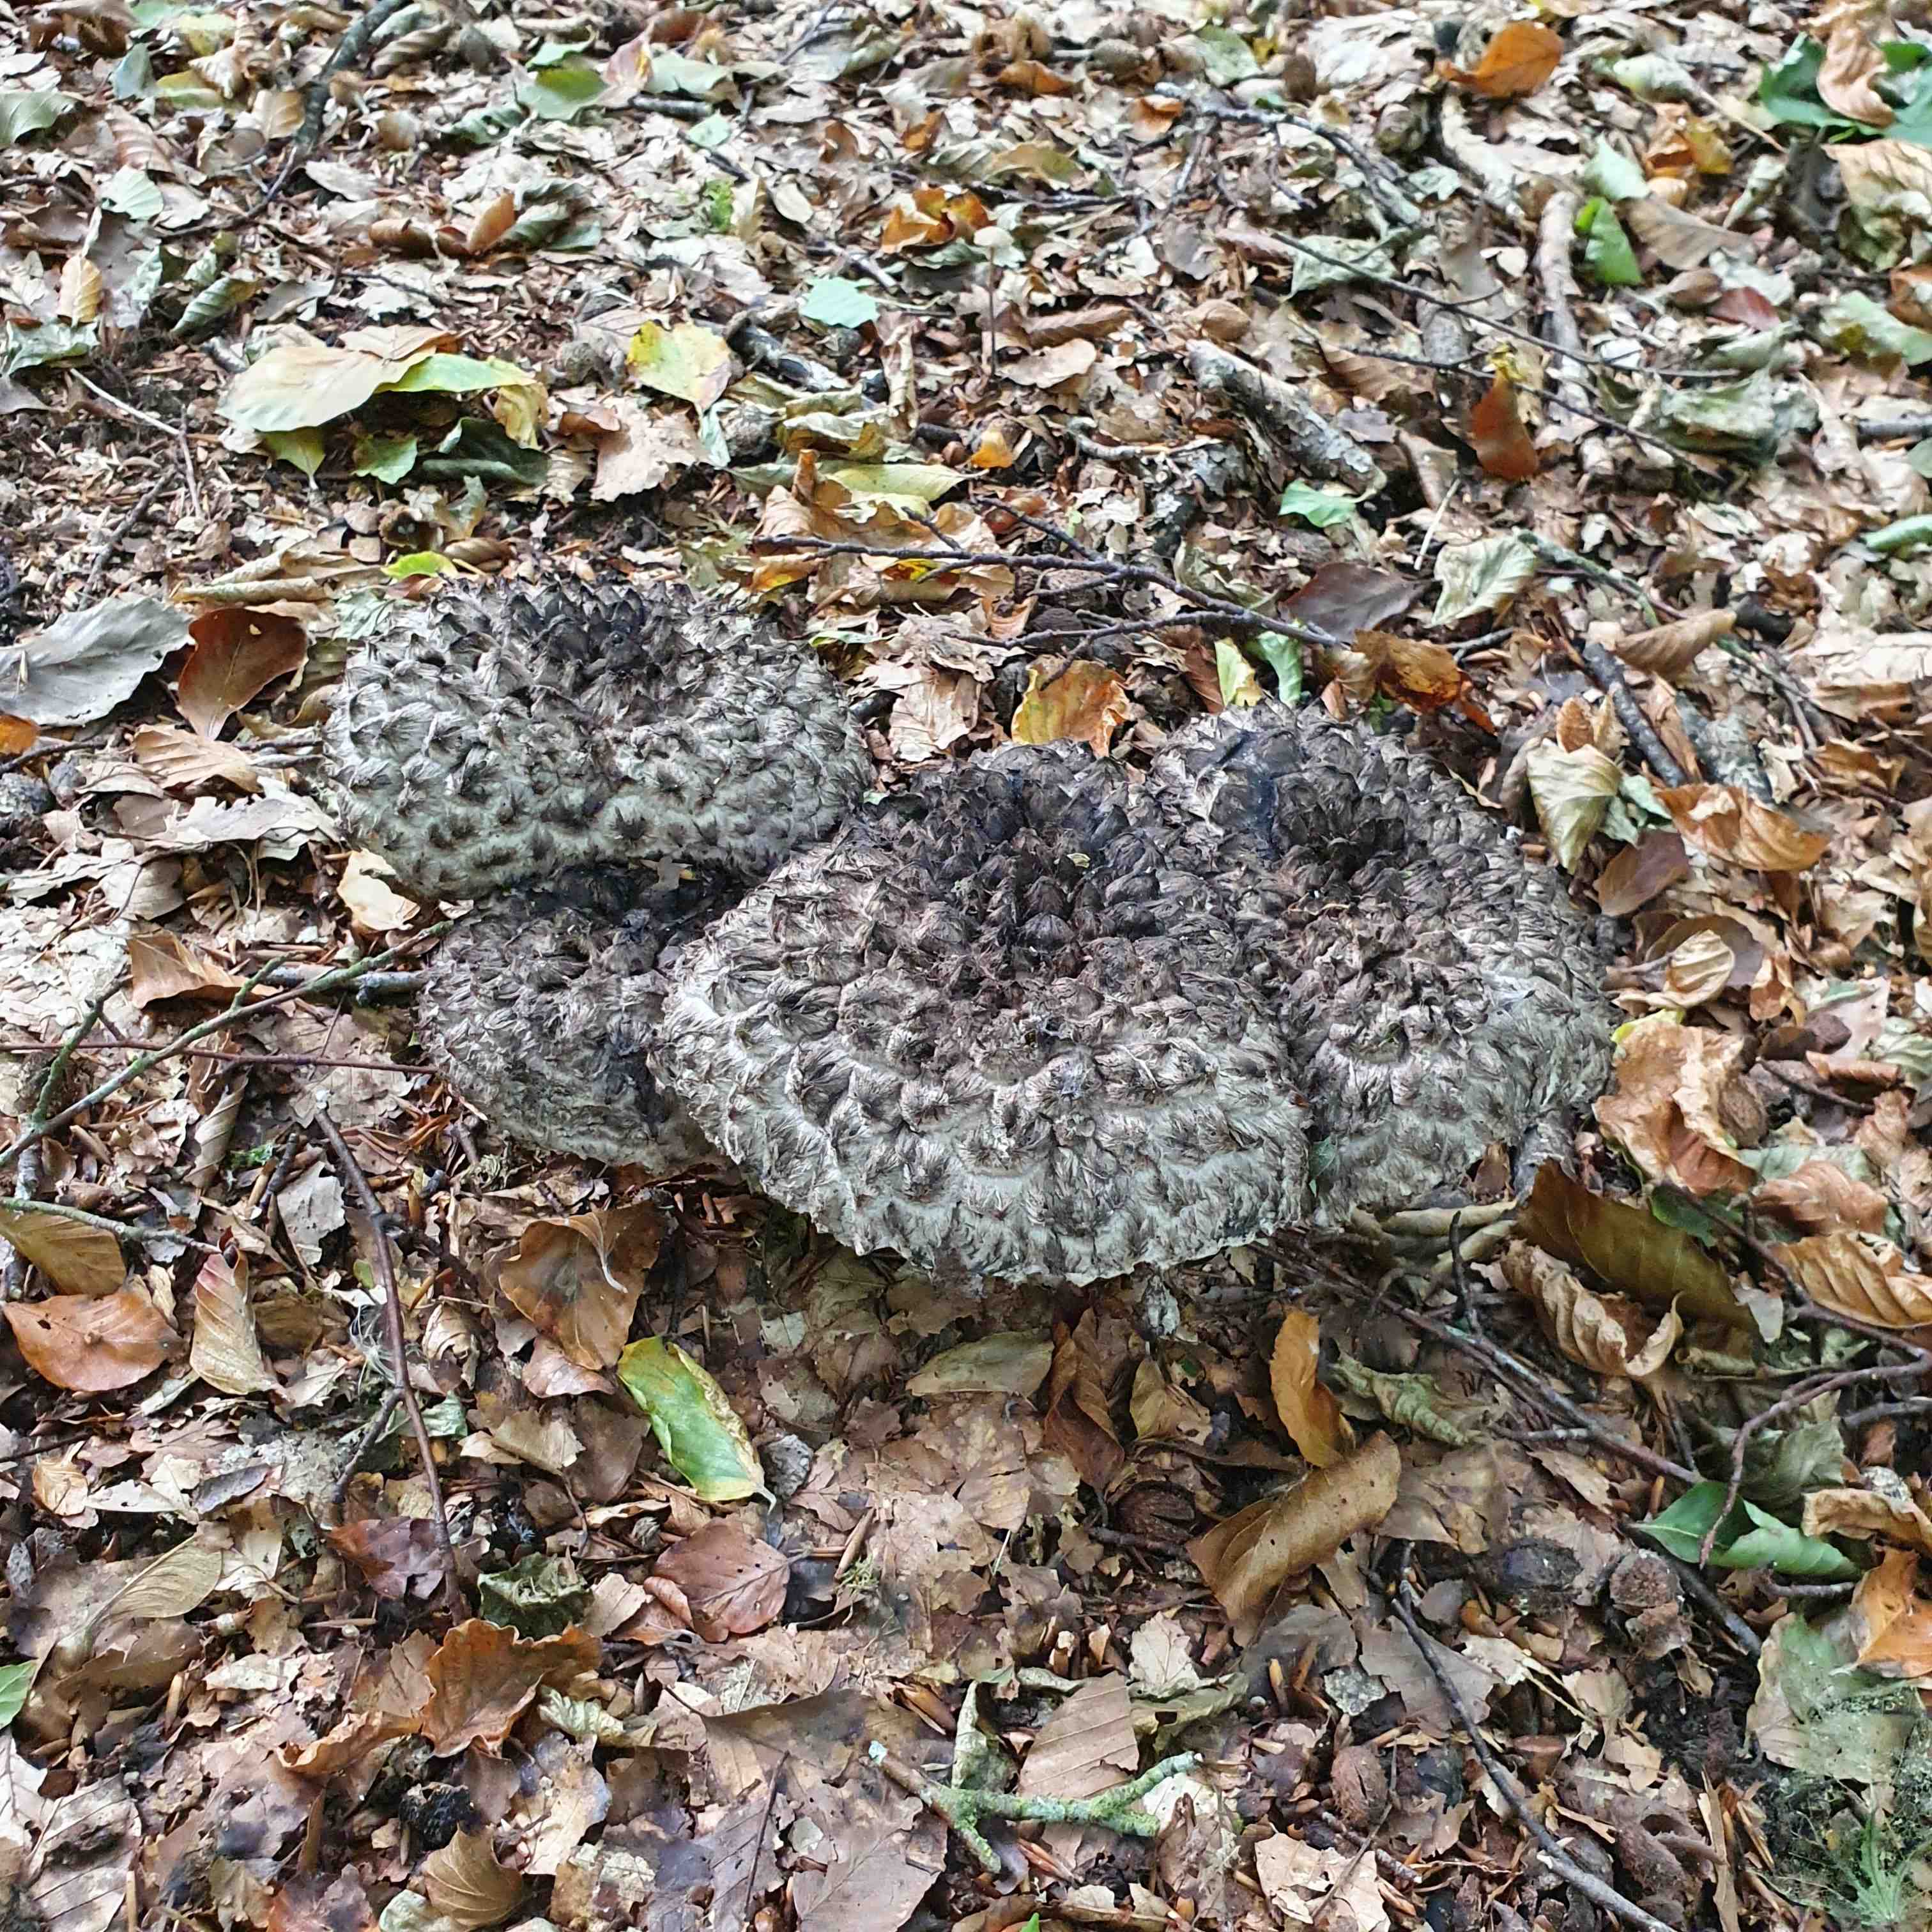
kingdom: Fungi
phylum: Basidiomycota
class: Agaricomycetes
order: Boletales
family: Boletaceae
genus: Strobilomyces
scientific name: Strobilomyces strobilaceus
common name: koglerørhat
